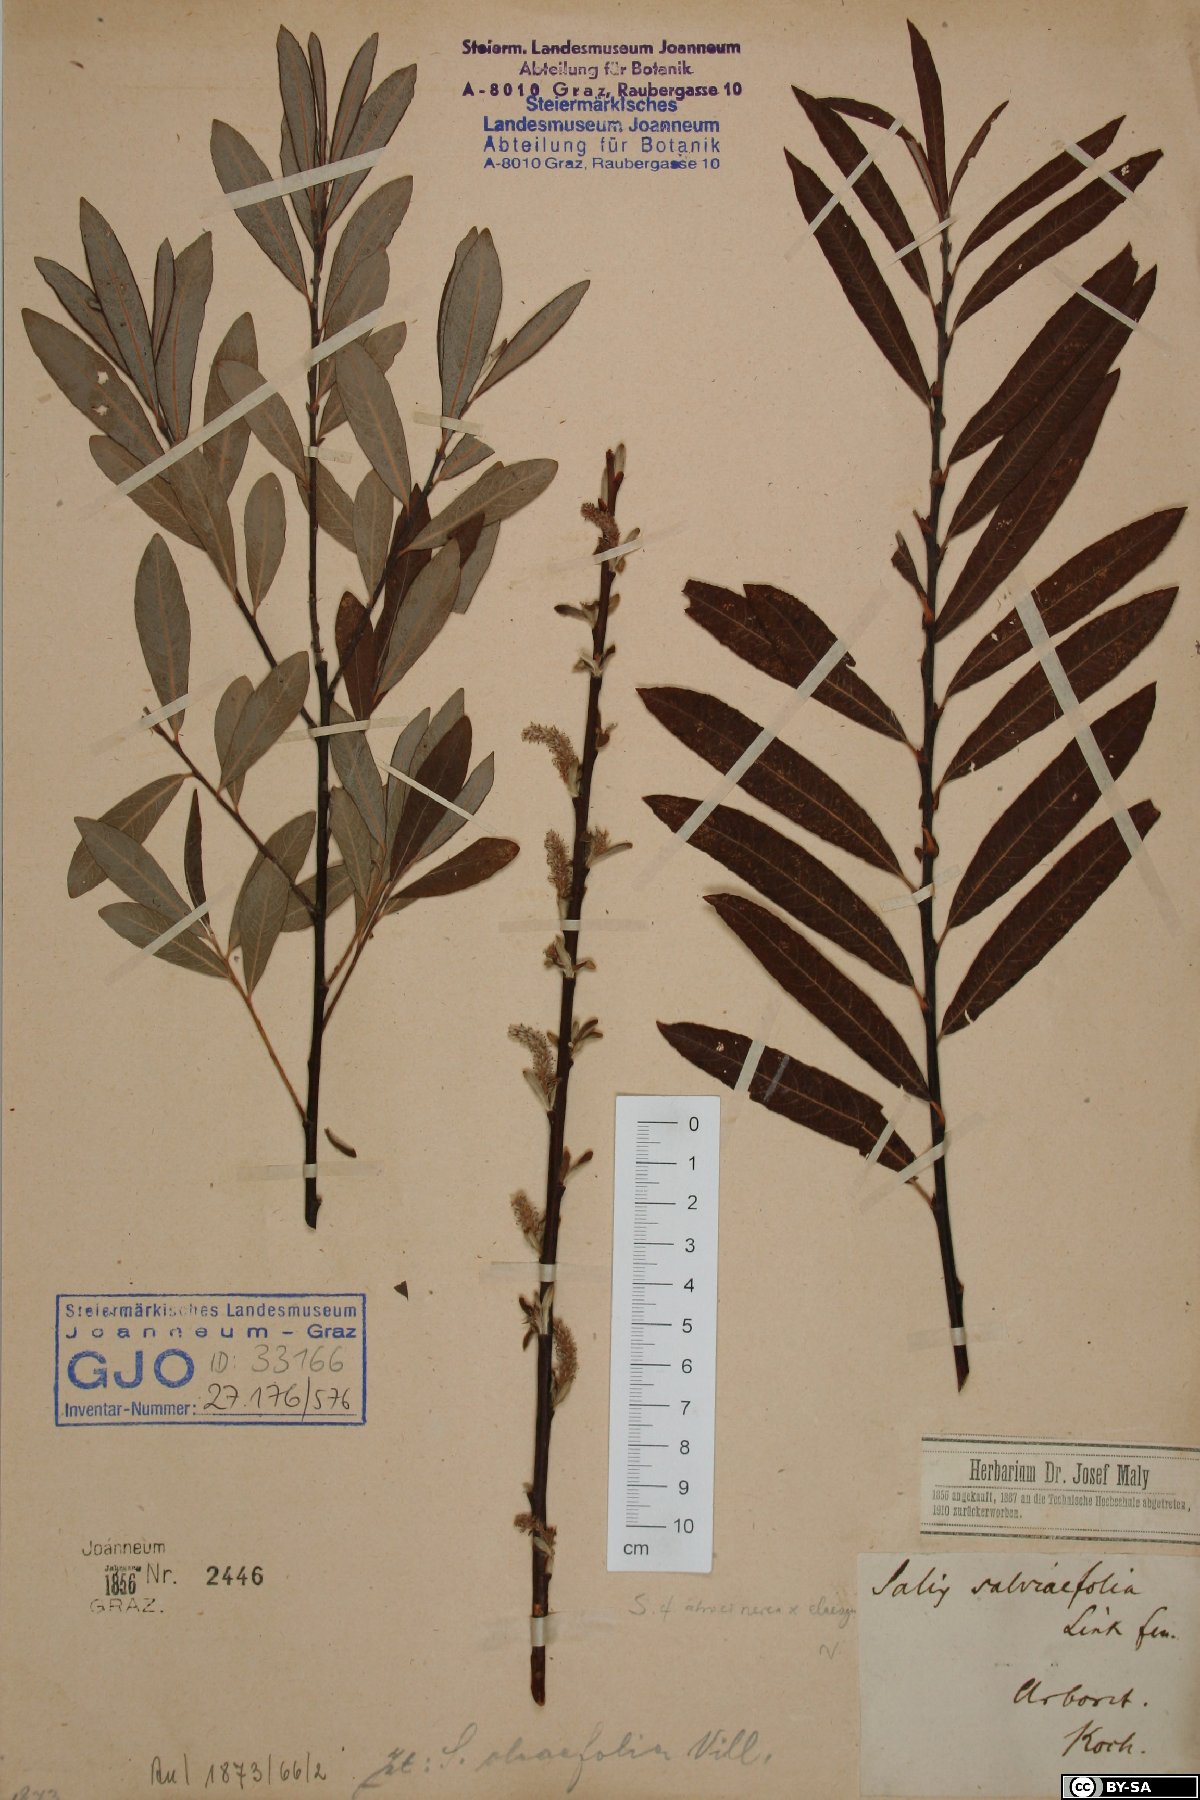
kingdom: Plantae
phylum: Tracheophyta
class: Magnoliopsida
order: Malpighiales
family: Salicaceae
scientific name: Salicaceae
